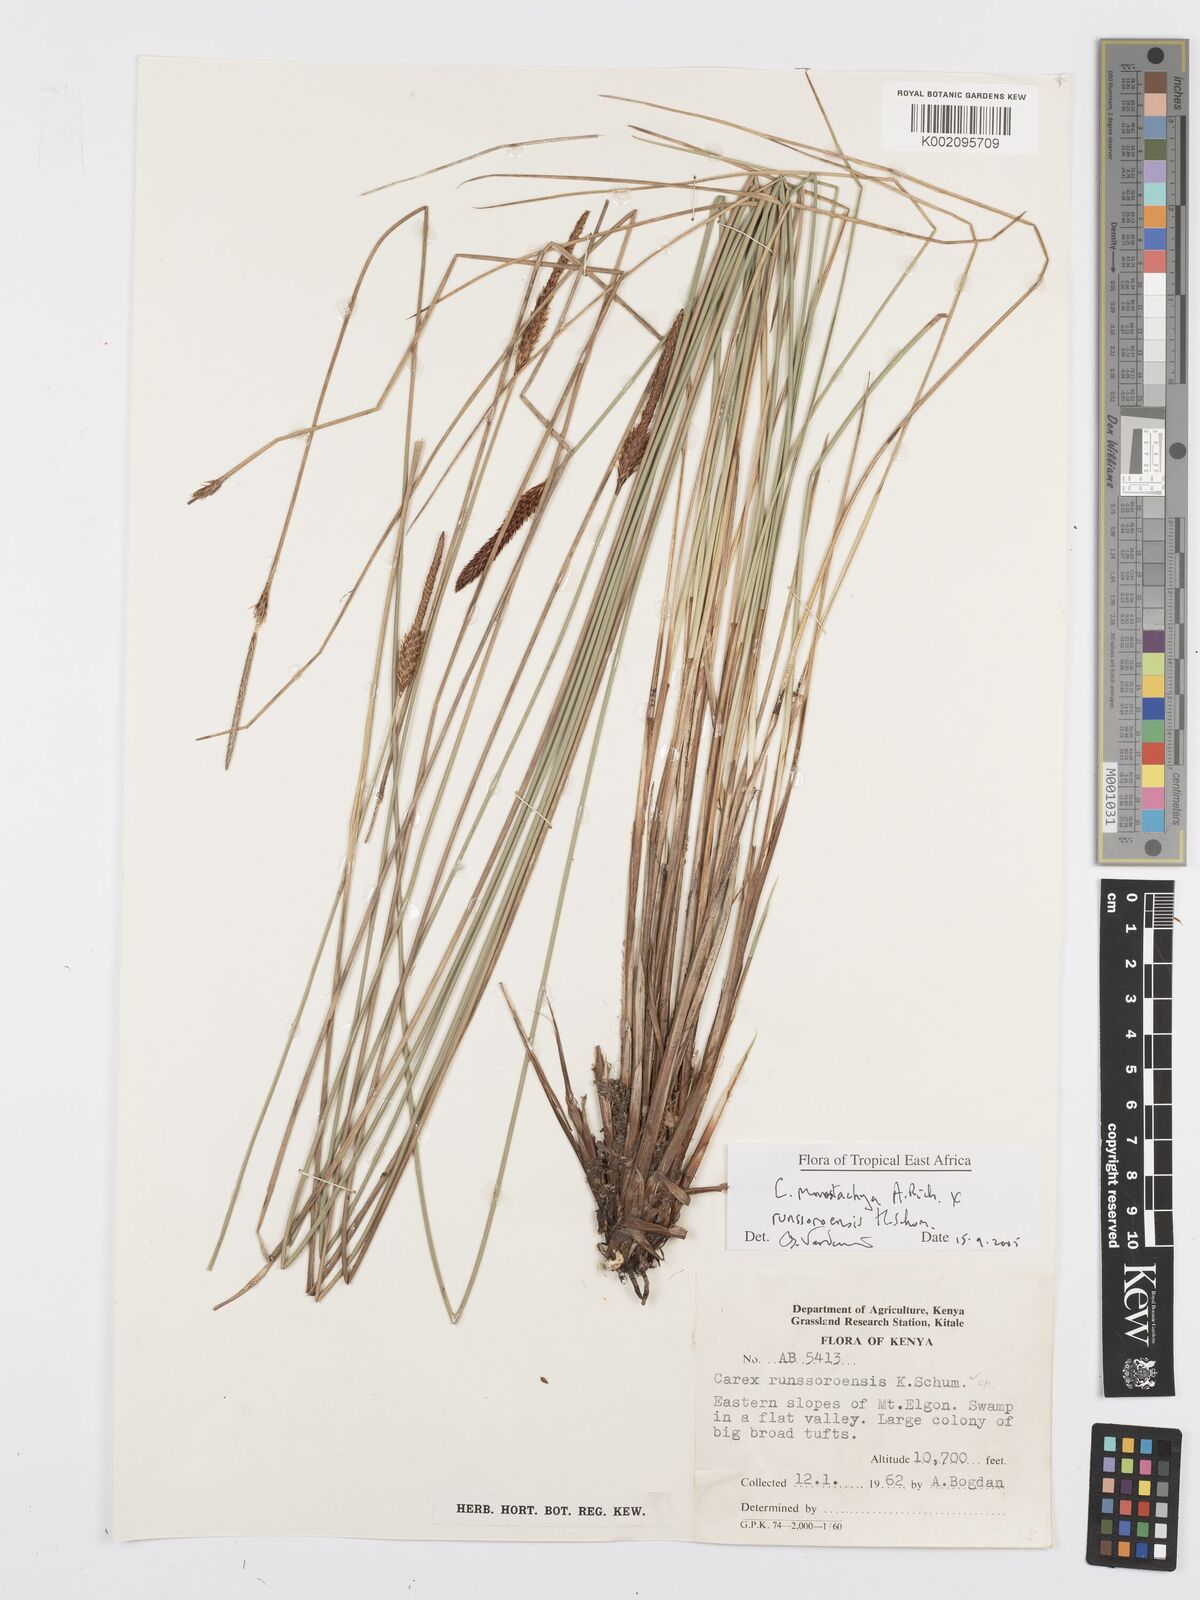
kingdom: Plantae
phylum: Tracheophyta
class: Liliopsida
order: Poales
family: Cyperaceae
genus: Carex
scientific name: Carex monostachya
